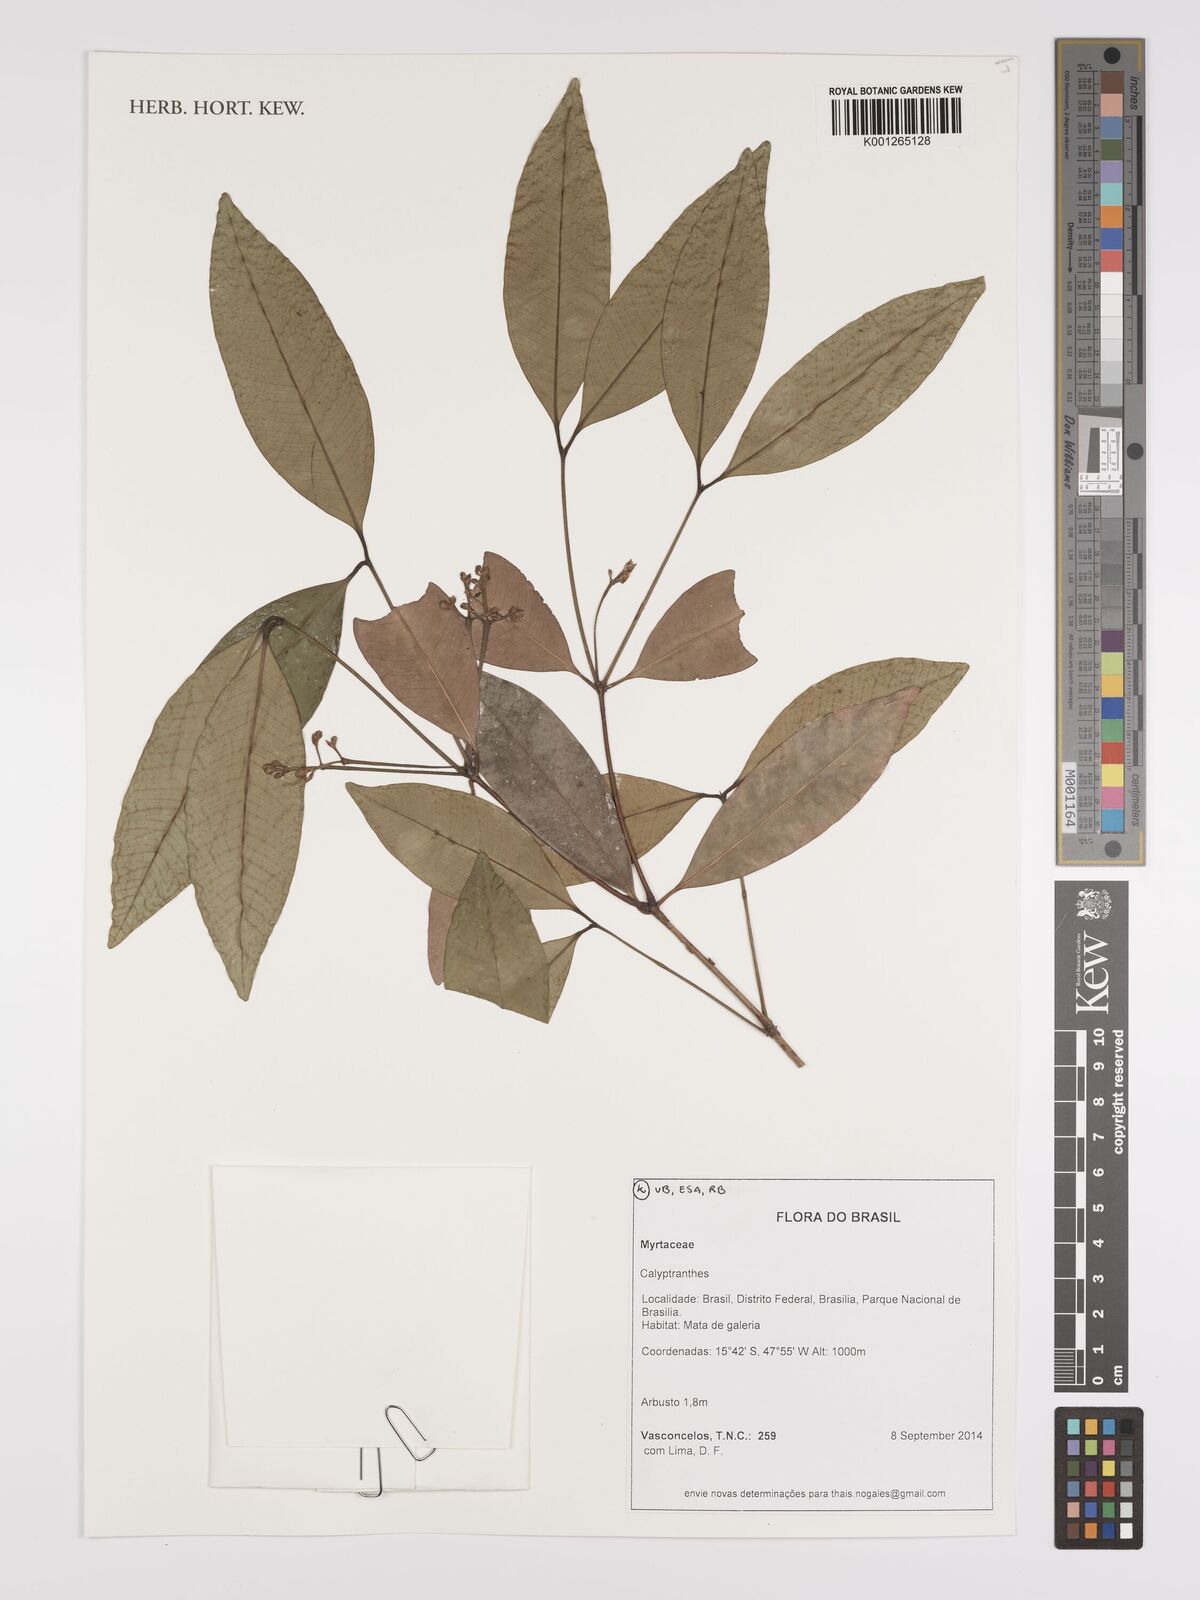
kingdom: Plantae
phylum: Tracheophyta
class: Magnoliopsida
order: Myrtales
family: Myrtaceae
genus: Calyptranthes
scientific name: Calyptranthes
